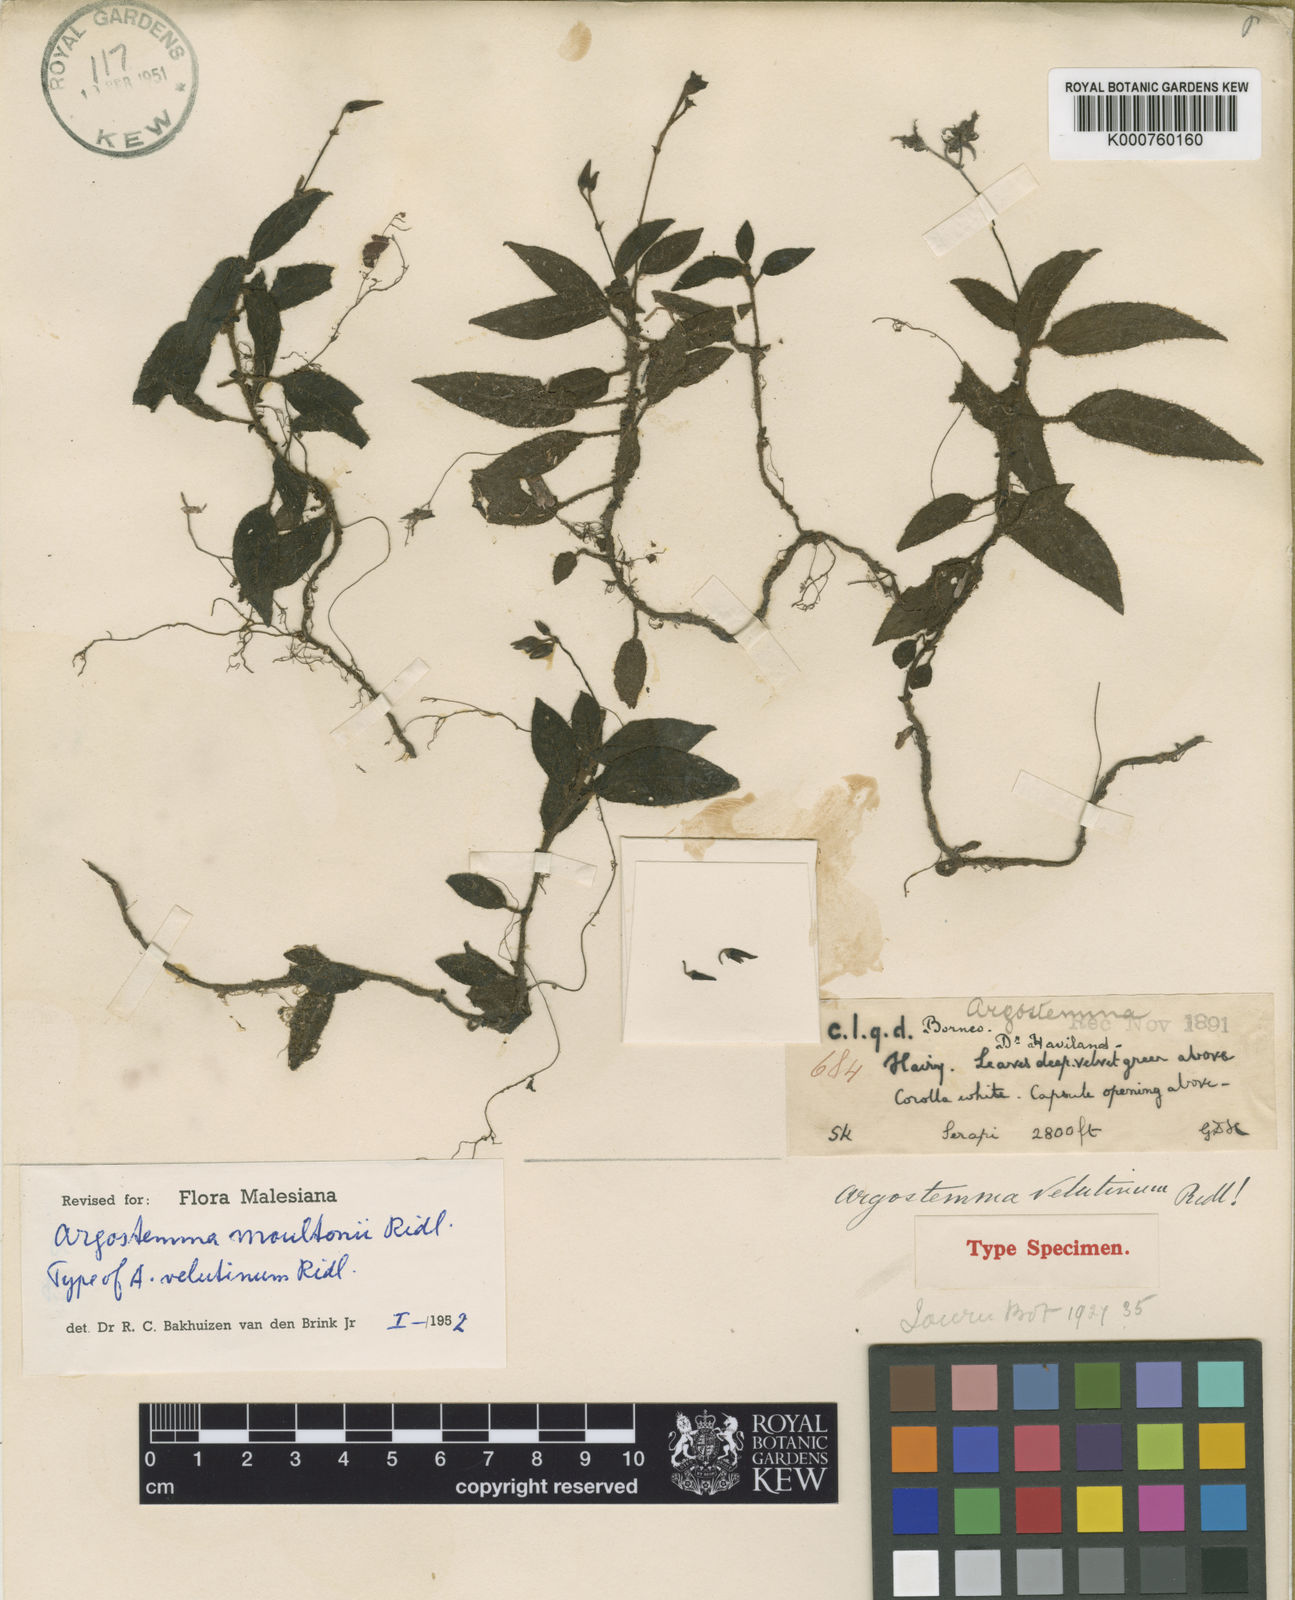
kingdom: Plantae
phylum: Tracheophyta
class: Magnoliopsida
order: Gentianales
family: Rubiaceae
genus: Argostemma
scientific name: Argostemma moultonii
